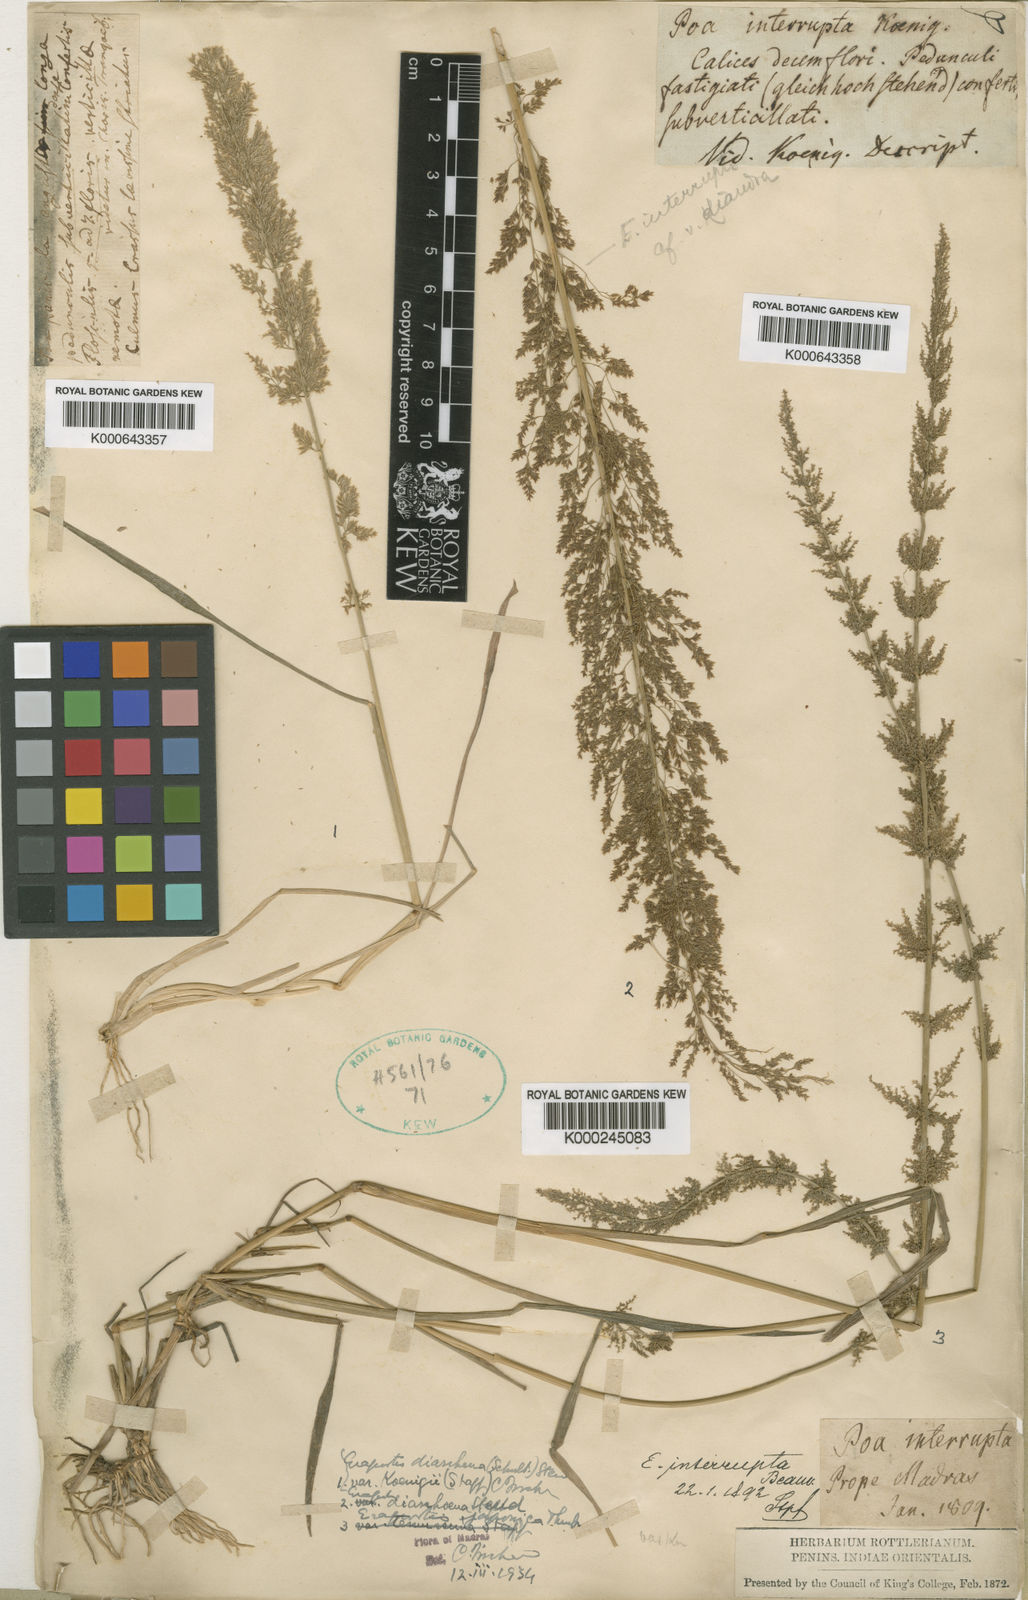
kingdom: Plantae
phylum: Tracheophyta
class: Liliopsida
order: Poales
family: Poaceae
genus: Eragrostis
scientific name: Eragrostis japonica
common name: Pond lovegrass
